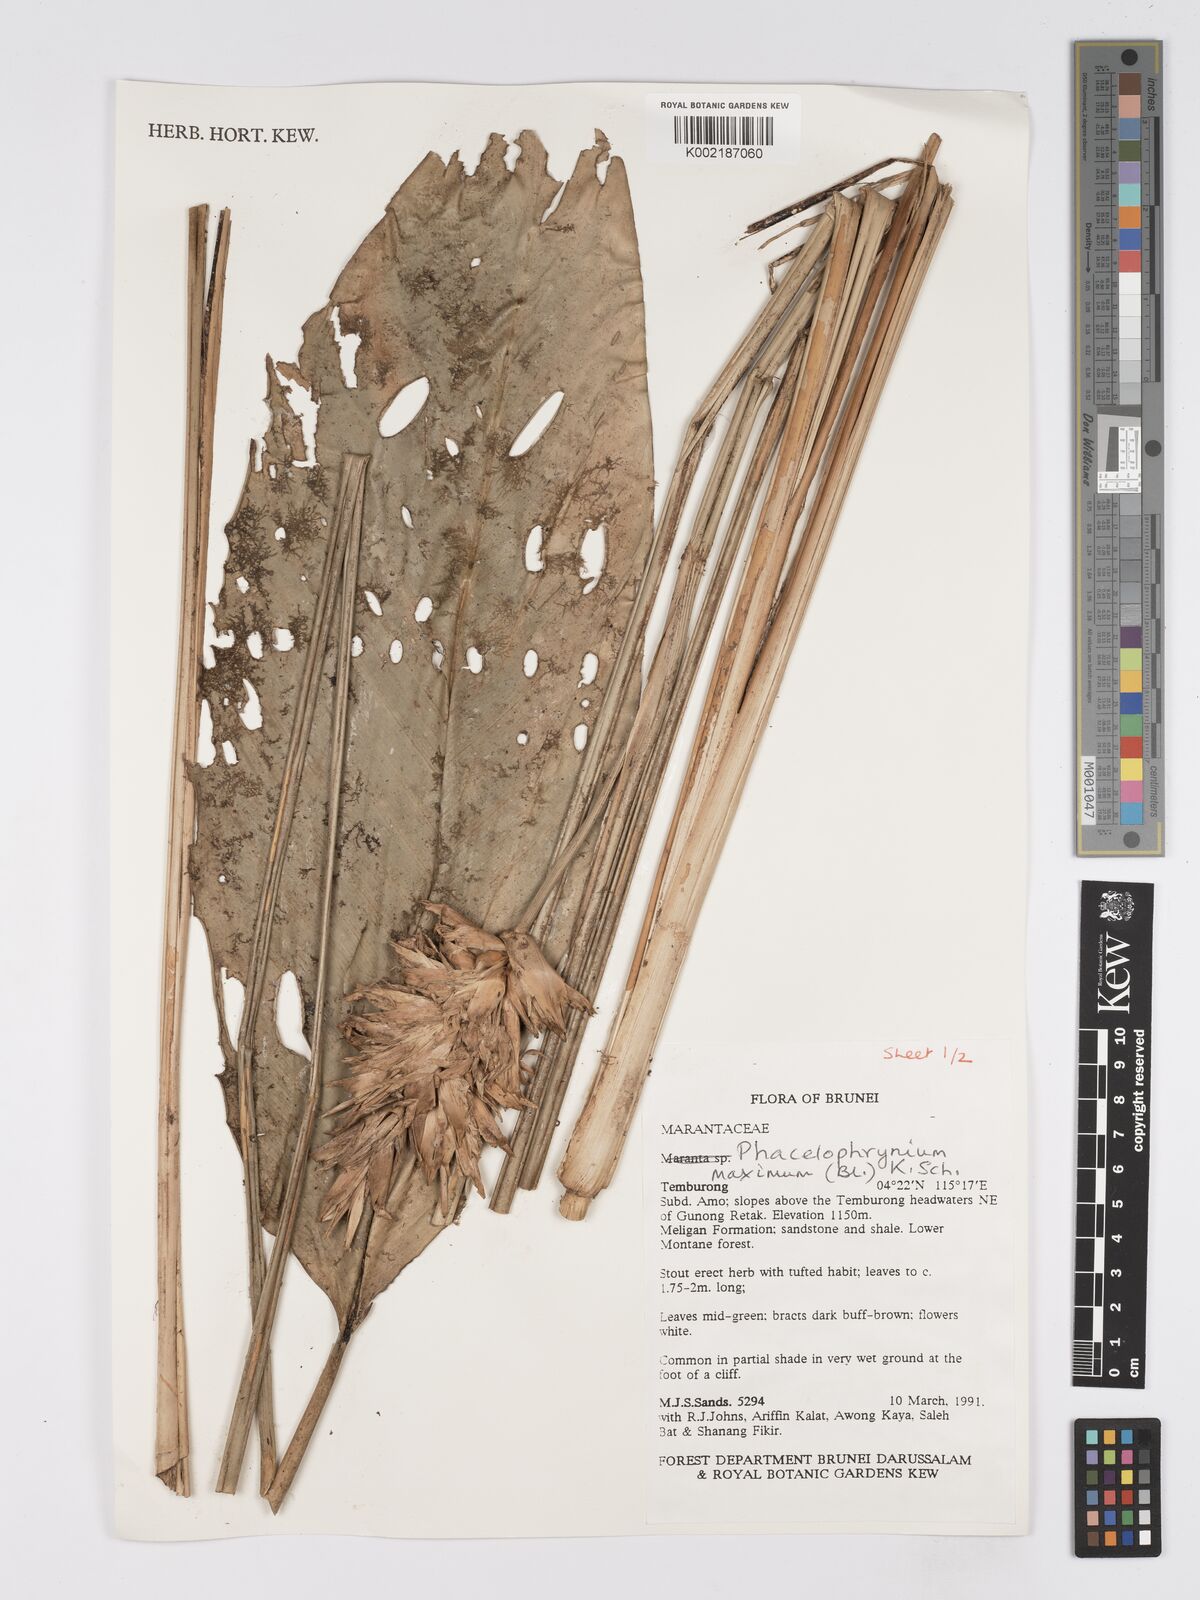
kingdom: Plantae
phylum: Tracheophyta
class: Liliopsida
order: Zingiberales
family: Marantaceae
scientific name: Marantaceae
